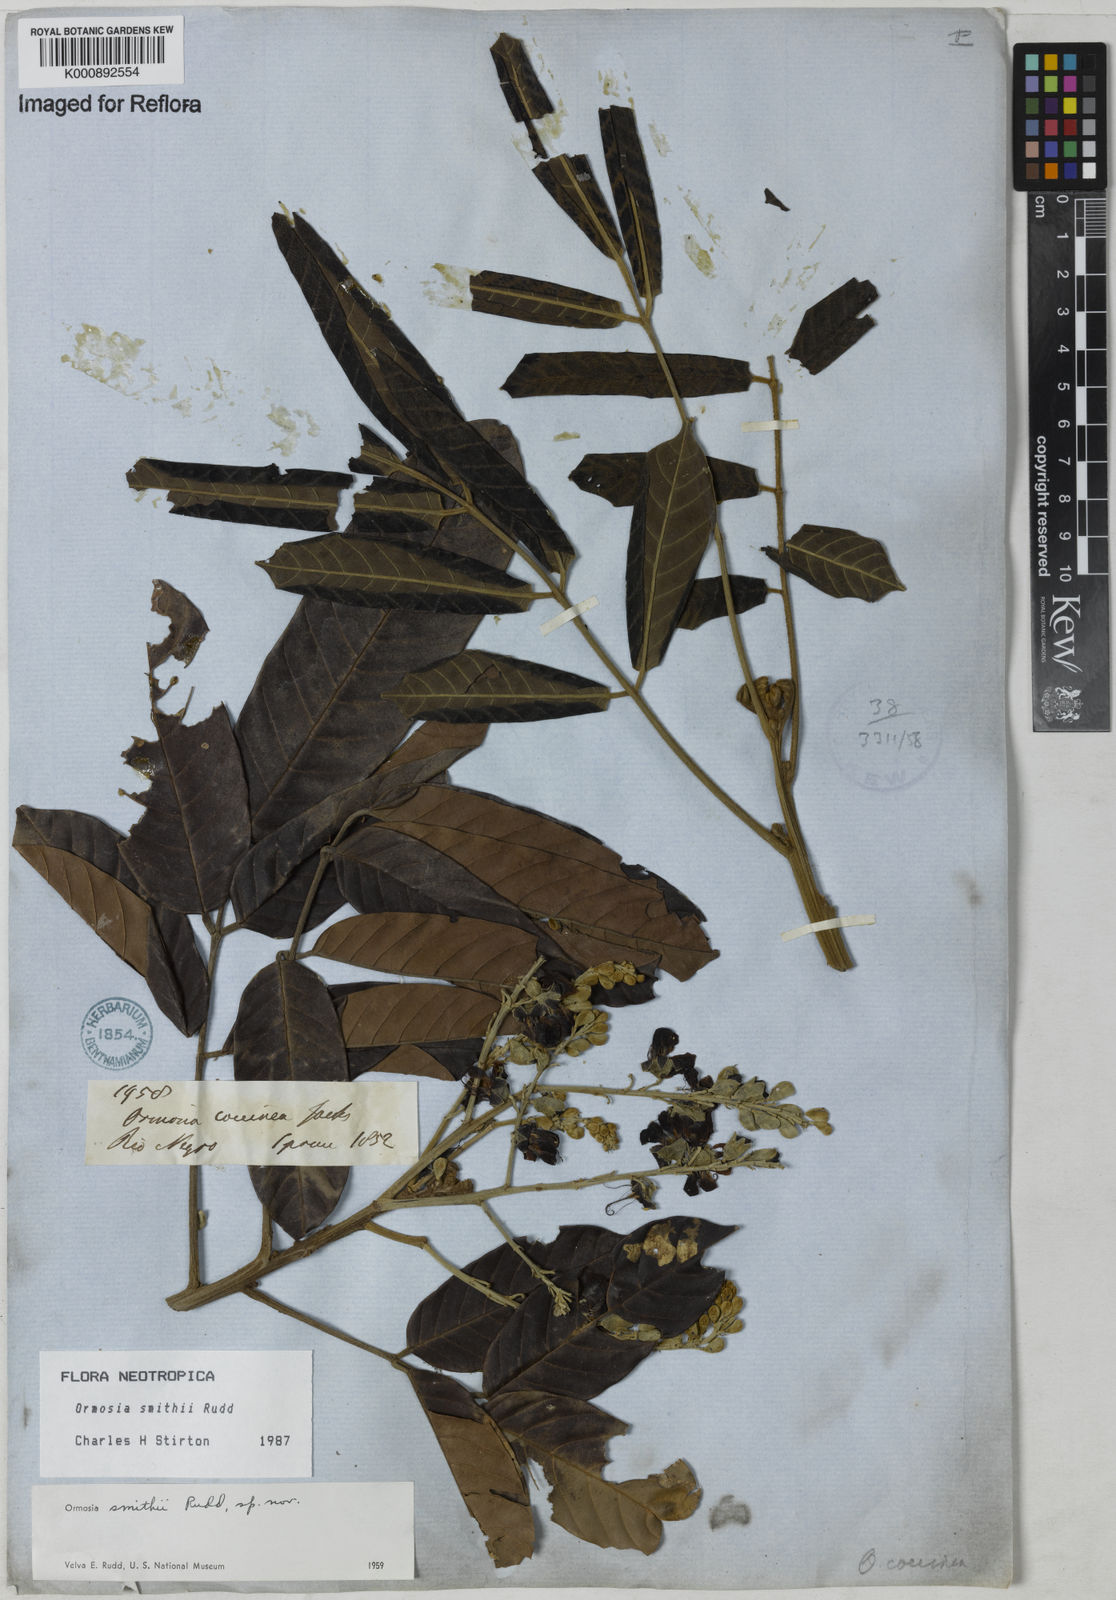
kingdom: Plantae
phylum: Tracheophyta
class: Magnoliopsida
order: Fabales
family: Fabaceae
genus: Ormosia
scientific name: Ormosia smithii
